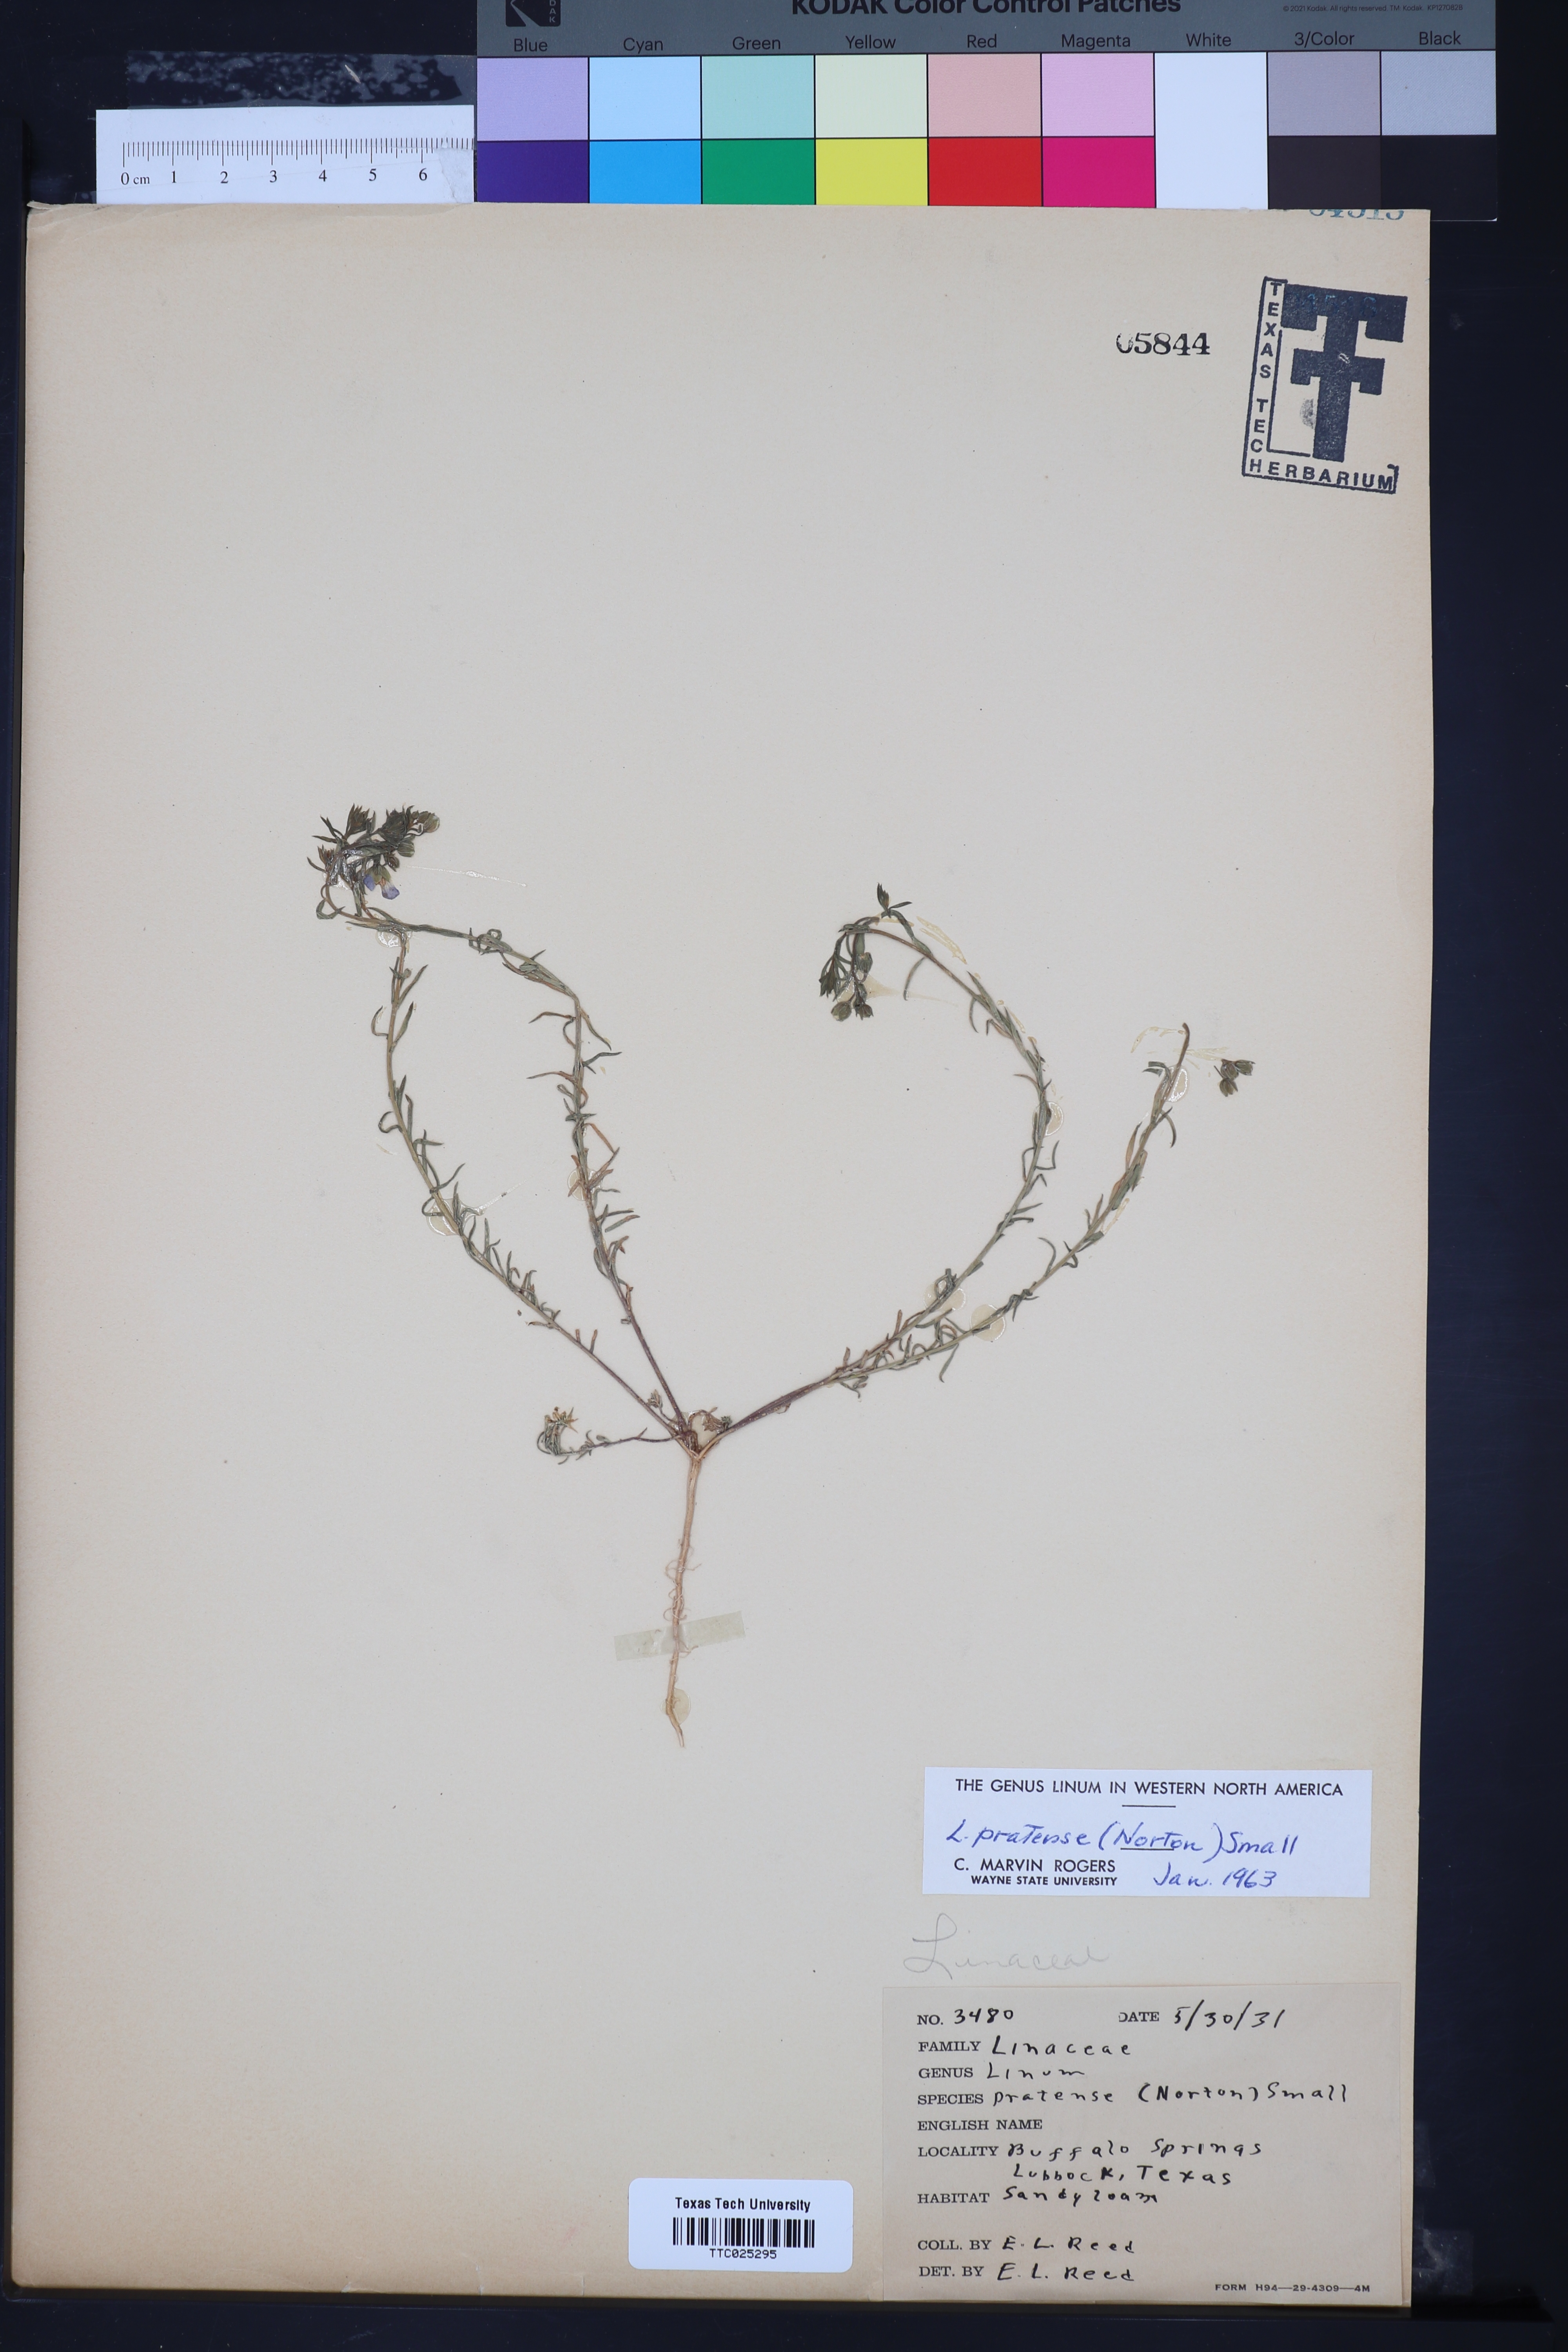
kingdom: Plantae
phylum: Tracheophyta
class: Magnoliopsida
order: Malpighiales
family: Linaceae
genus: Linum
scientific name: Linum pratense
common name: Norton's flax
